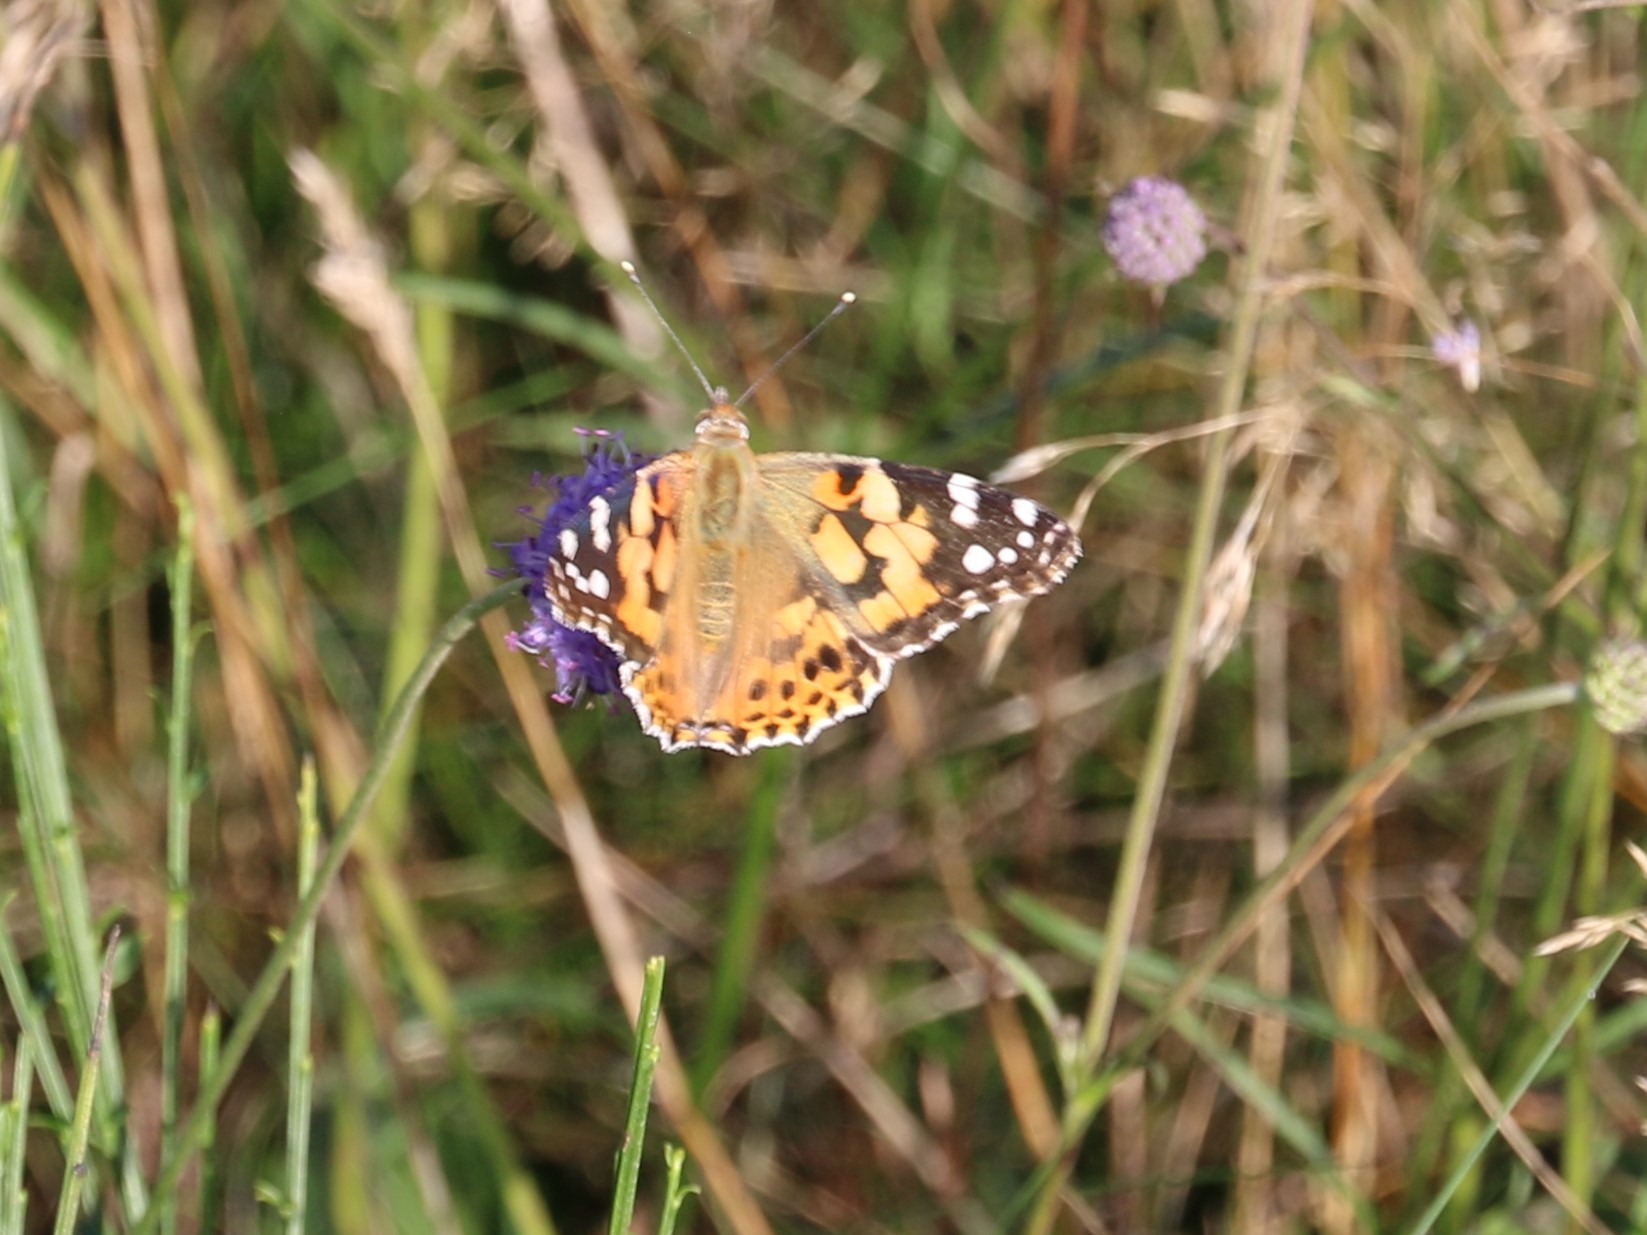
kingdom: Animalia
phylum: Arthropoda
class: Insecta
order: Lepidoptera
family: Nymphalidae
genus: Vanessa
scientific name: Vanessa cardui
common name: Tidselsommerfugl
